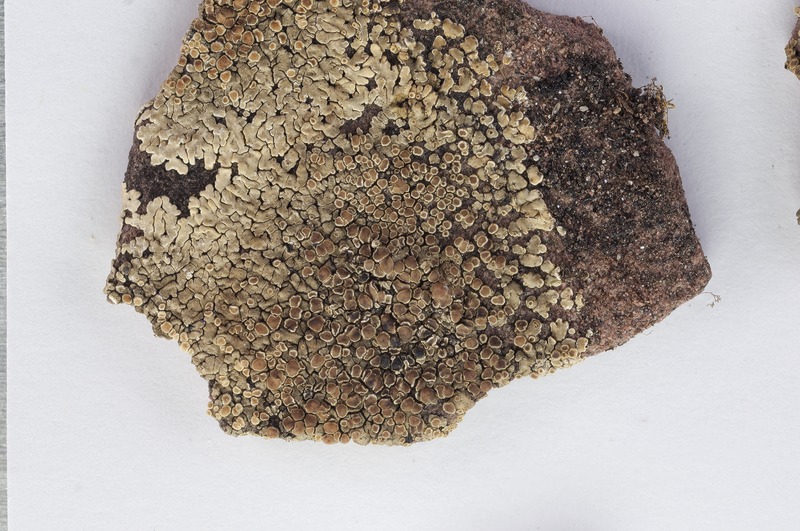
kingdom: Fungi
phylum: Ascomycota
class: Lecanoromycetes
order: Lecanorales
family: Lecanoraceae
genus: Protoparmeliopsis
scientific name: Protoparmeliopsis muralis
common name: Stonewall rim lichen
